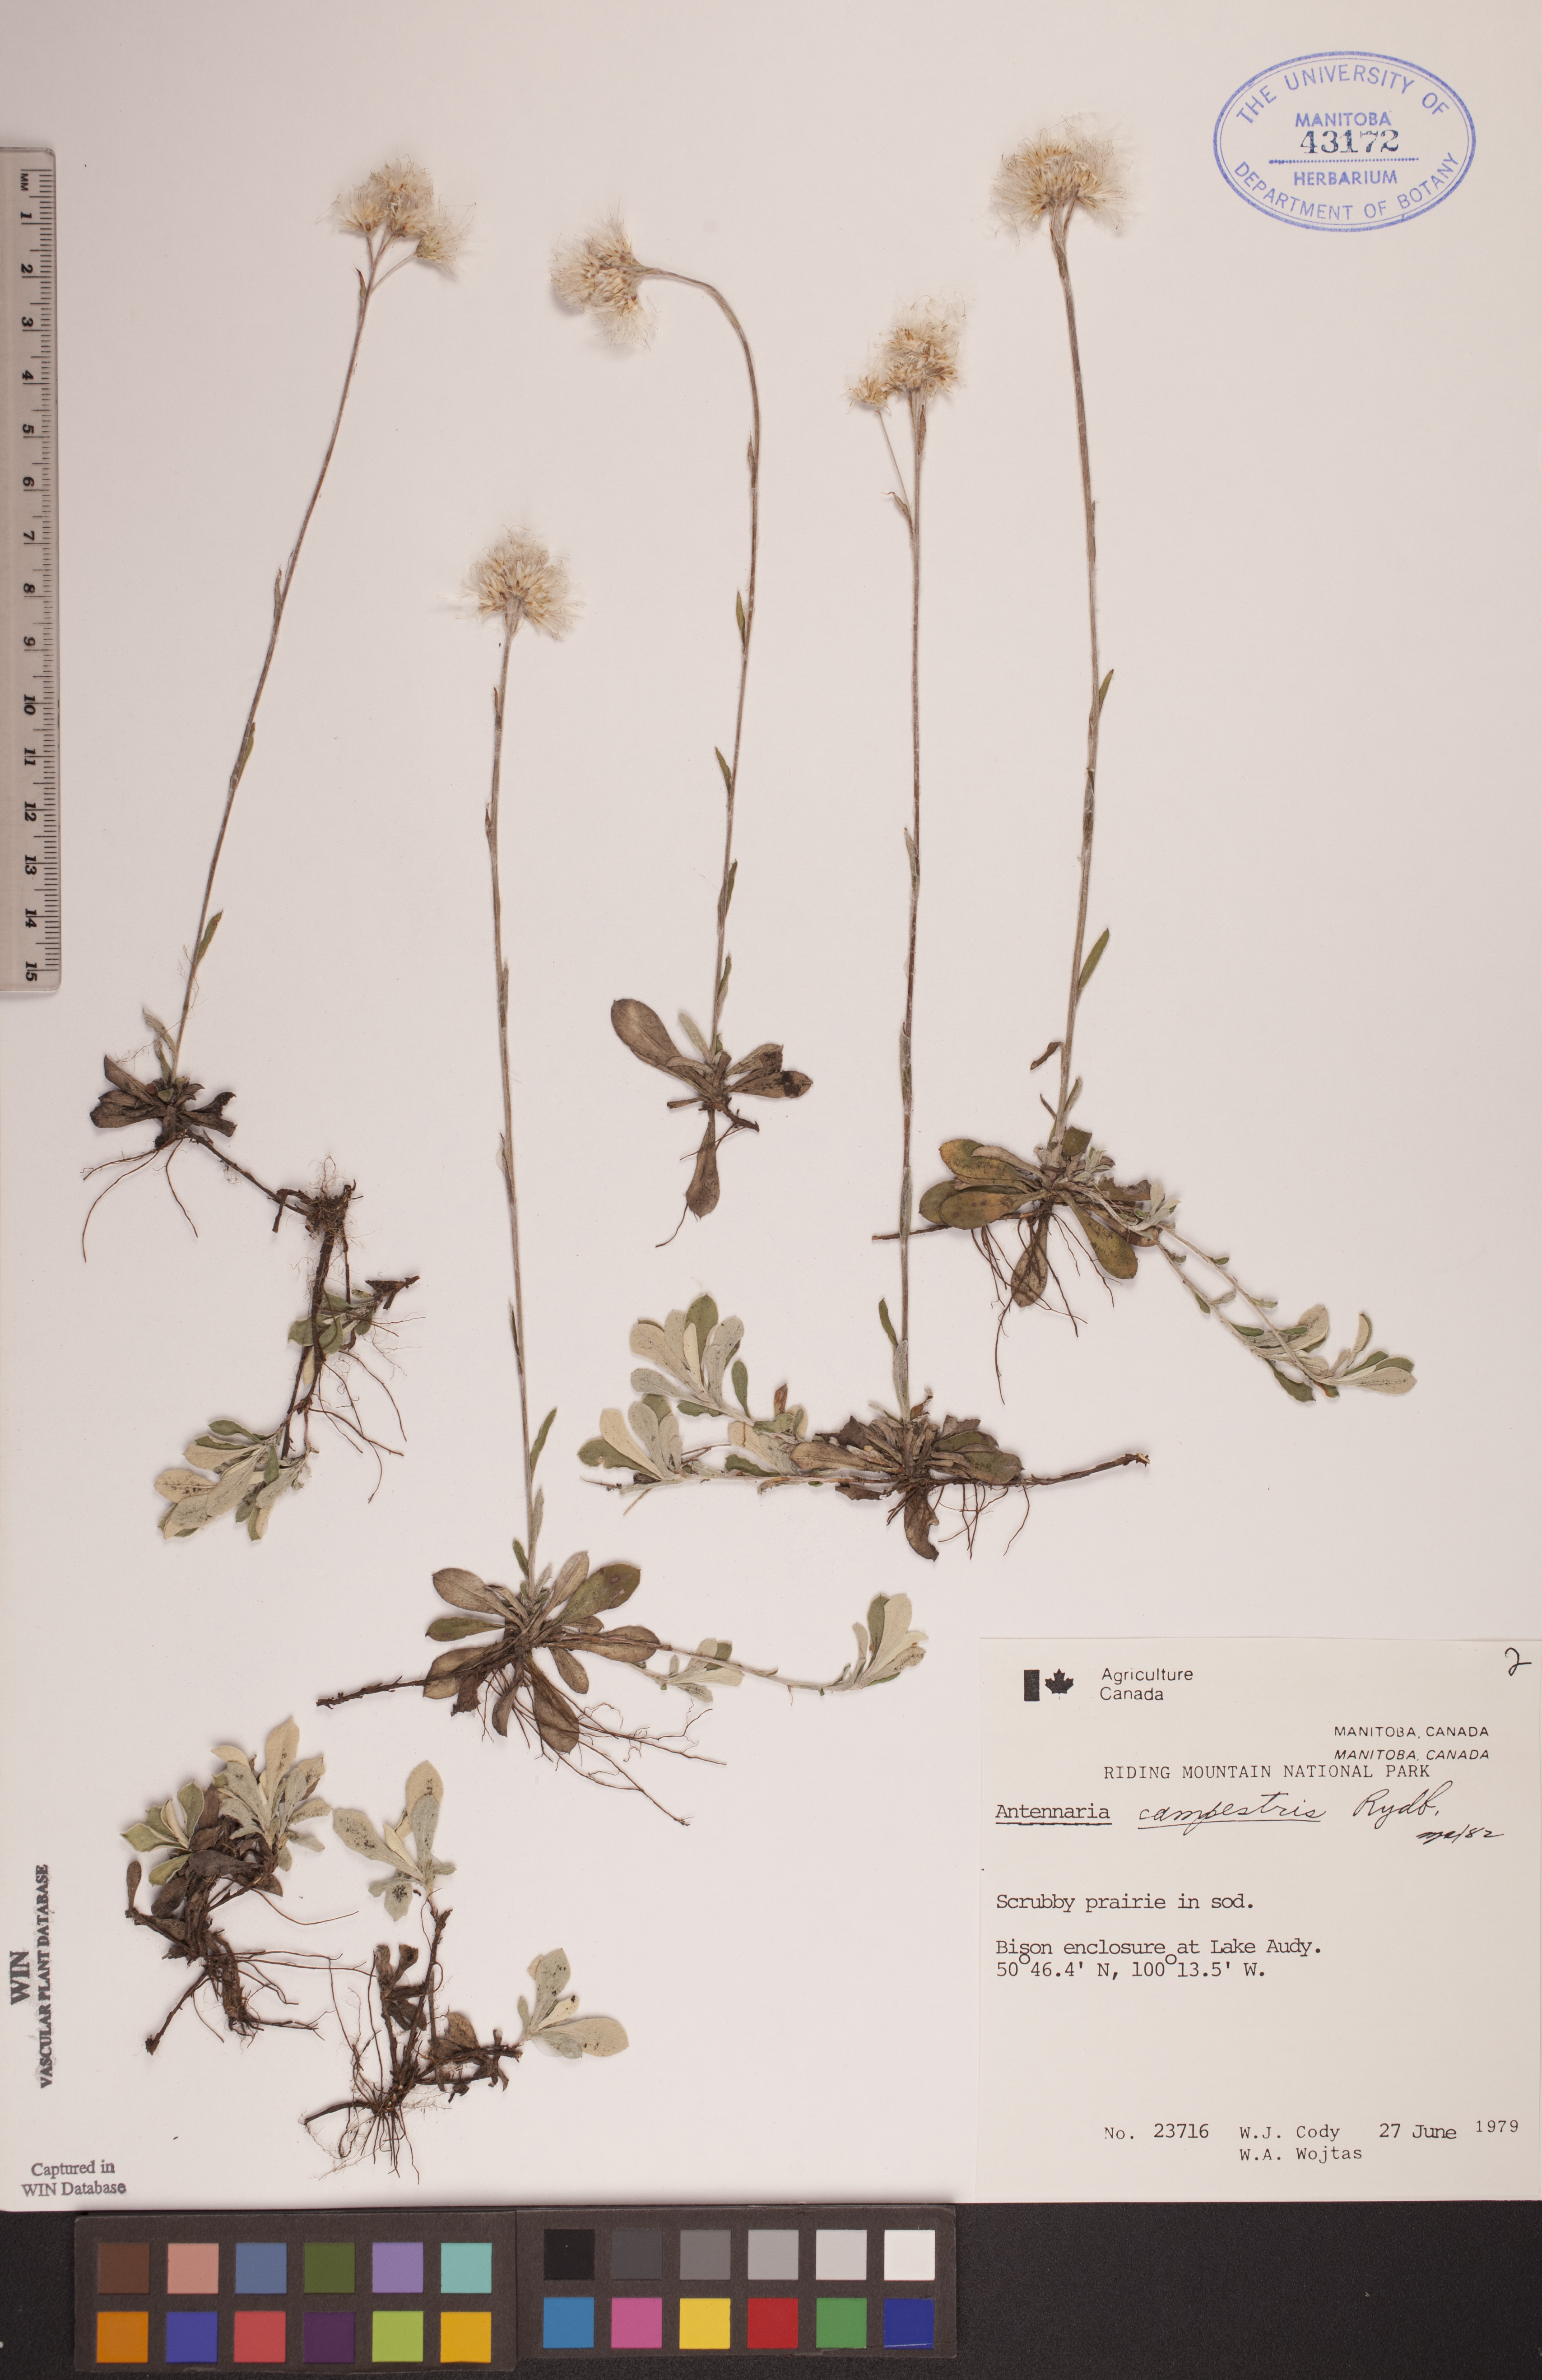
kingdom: Plantae
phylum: Tracheophyta
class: Magnoliopsida
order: Asterales
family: Asteraceae
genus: Antennaria
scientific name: Antennaria neglecta
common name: Field pussytoes
